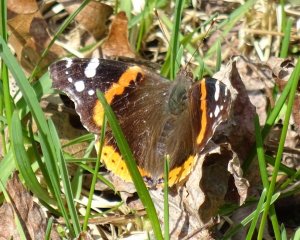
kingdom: Animalia
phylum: Arthropoda
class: Insecta
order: Lepidoptera
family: Nymphalidae
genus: Vanessa
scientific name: Vanessa atalanta
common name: Red Admiral
